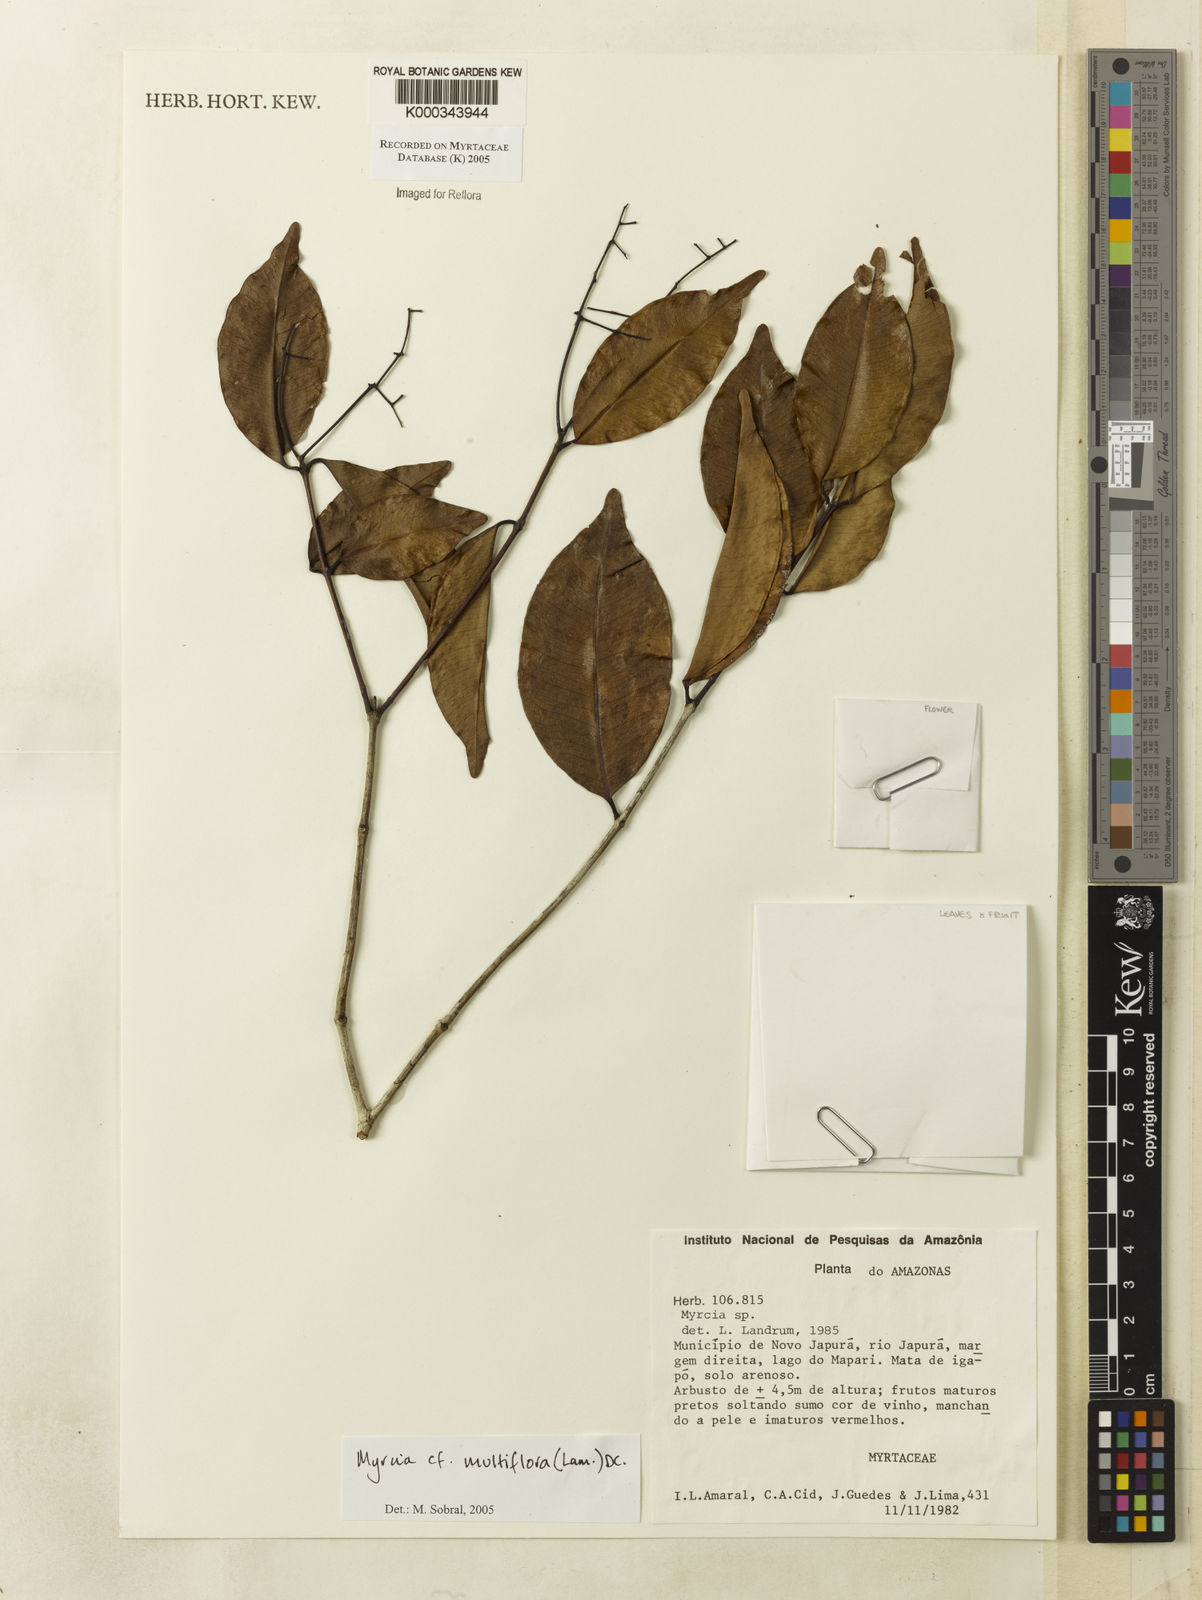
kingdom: Plantae
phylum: Tracheophyta
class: Magnoliopsida
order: Myrtales
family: Myrtaceae
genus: Myrcia
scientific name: Myrcia multiflora
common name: Pedra hume
